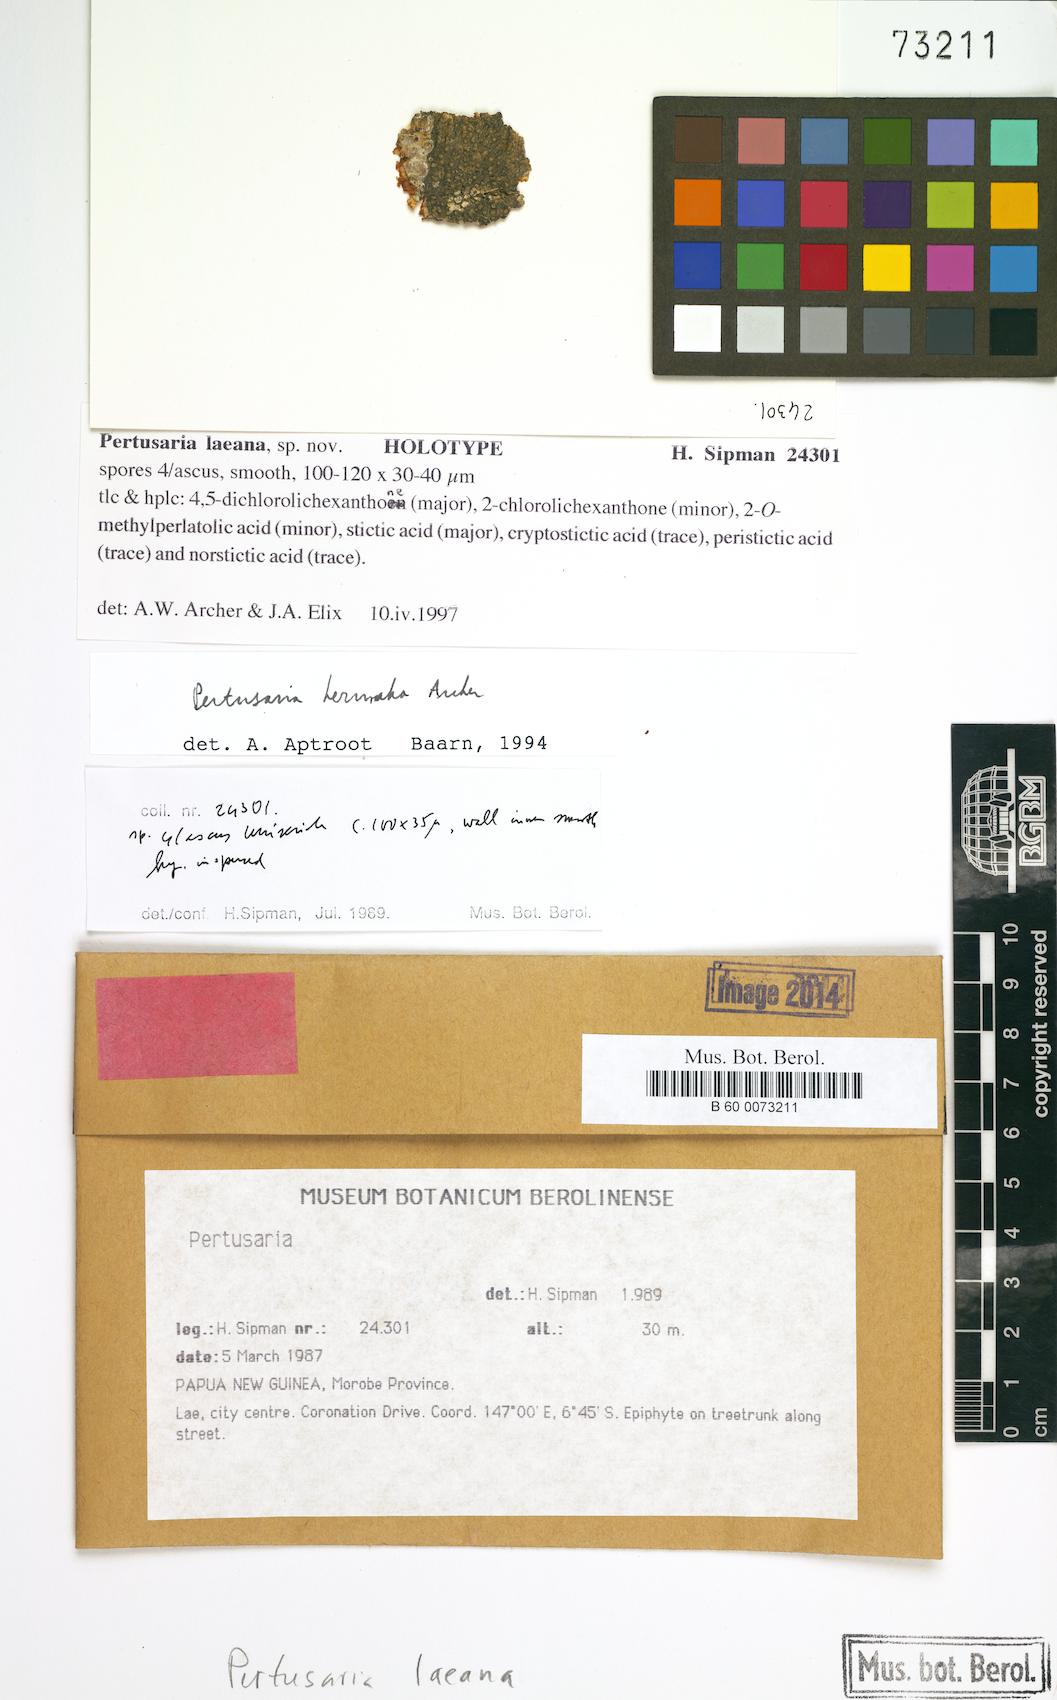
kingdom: Fungi
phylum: Ascomycota
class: Lecanoromycetes
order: Pertusariales
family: Pertusariaceae
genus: Pertusaria
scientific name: Pertusaria lavata
